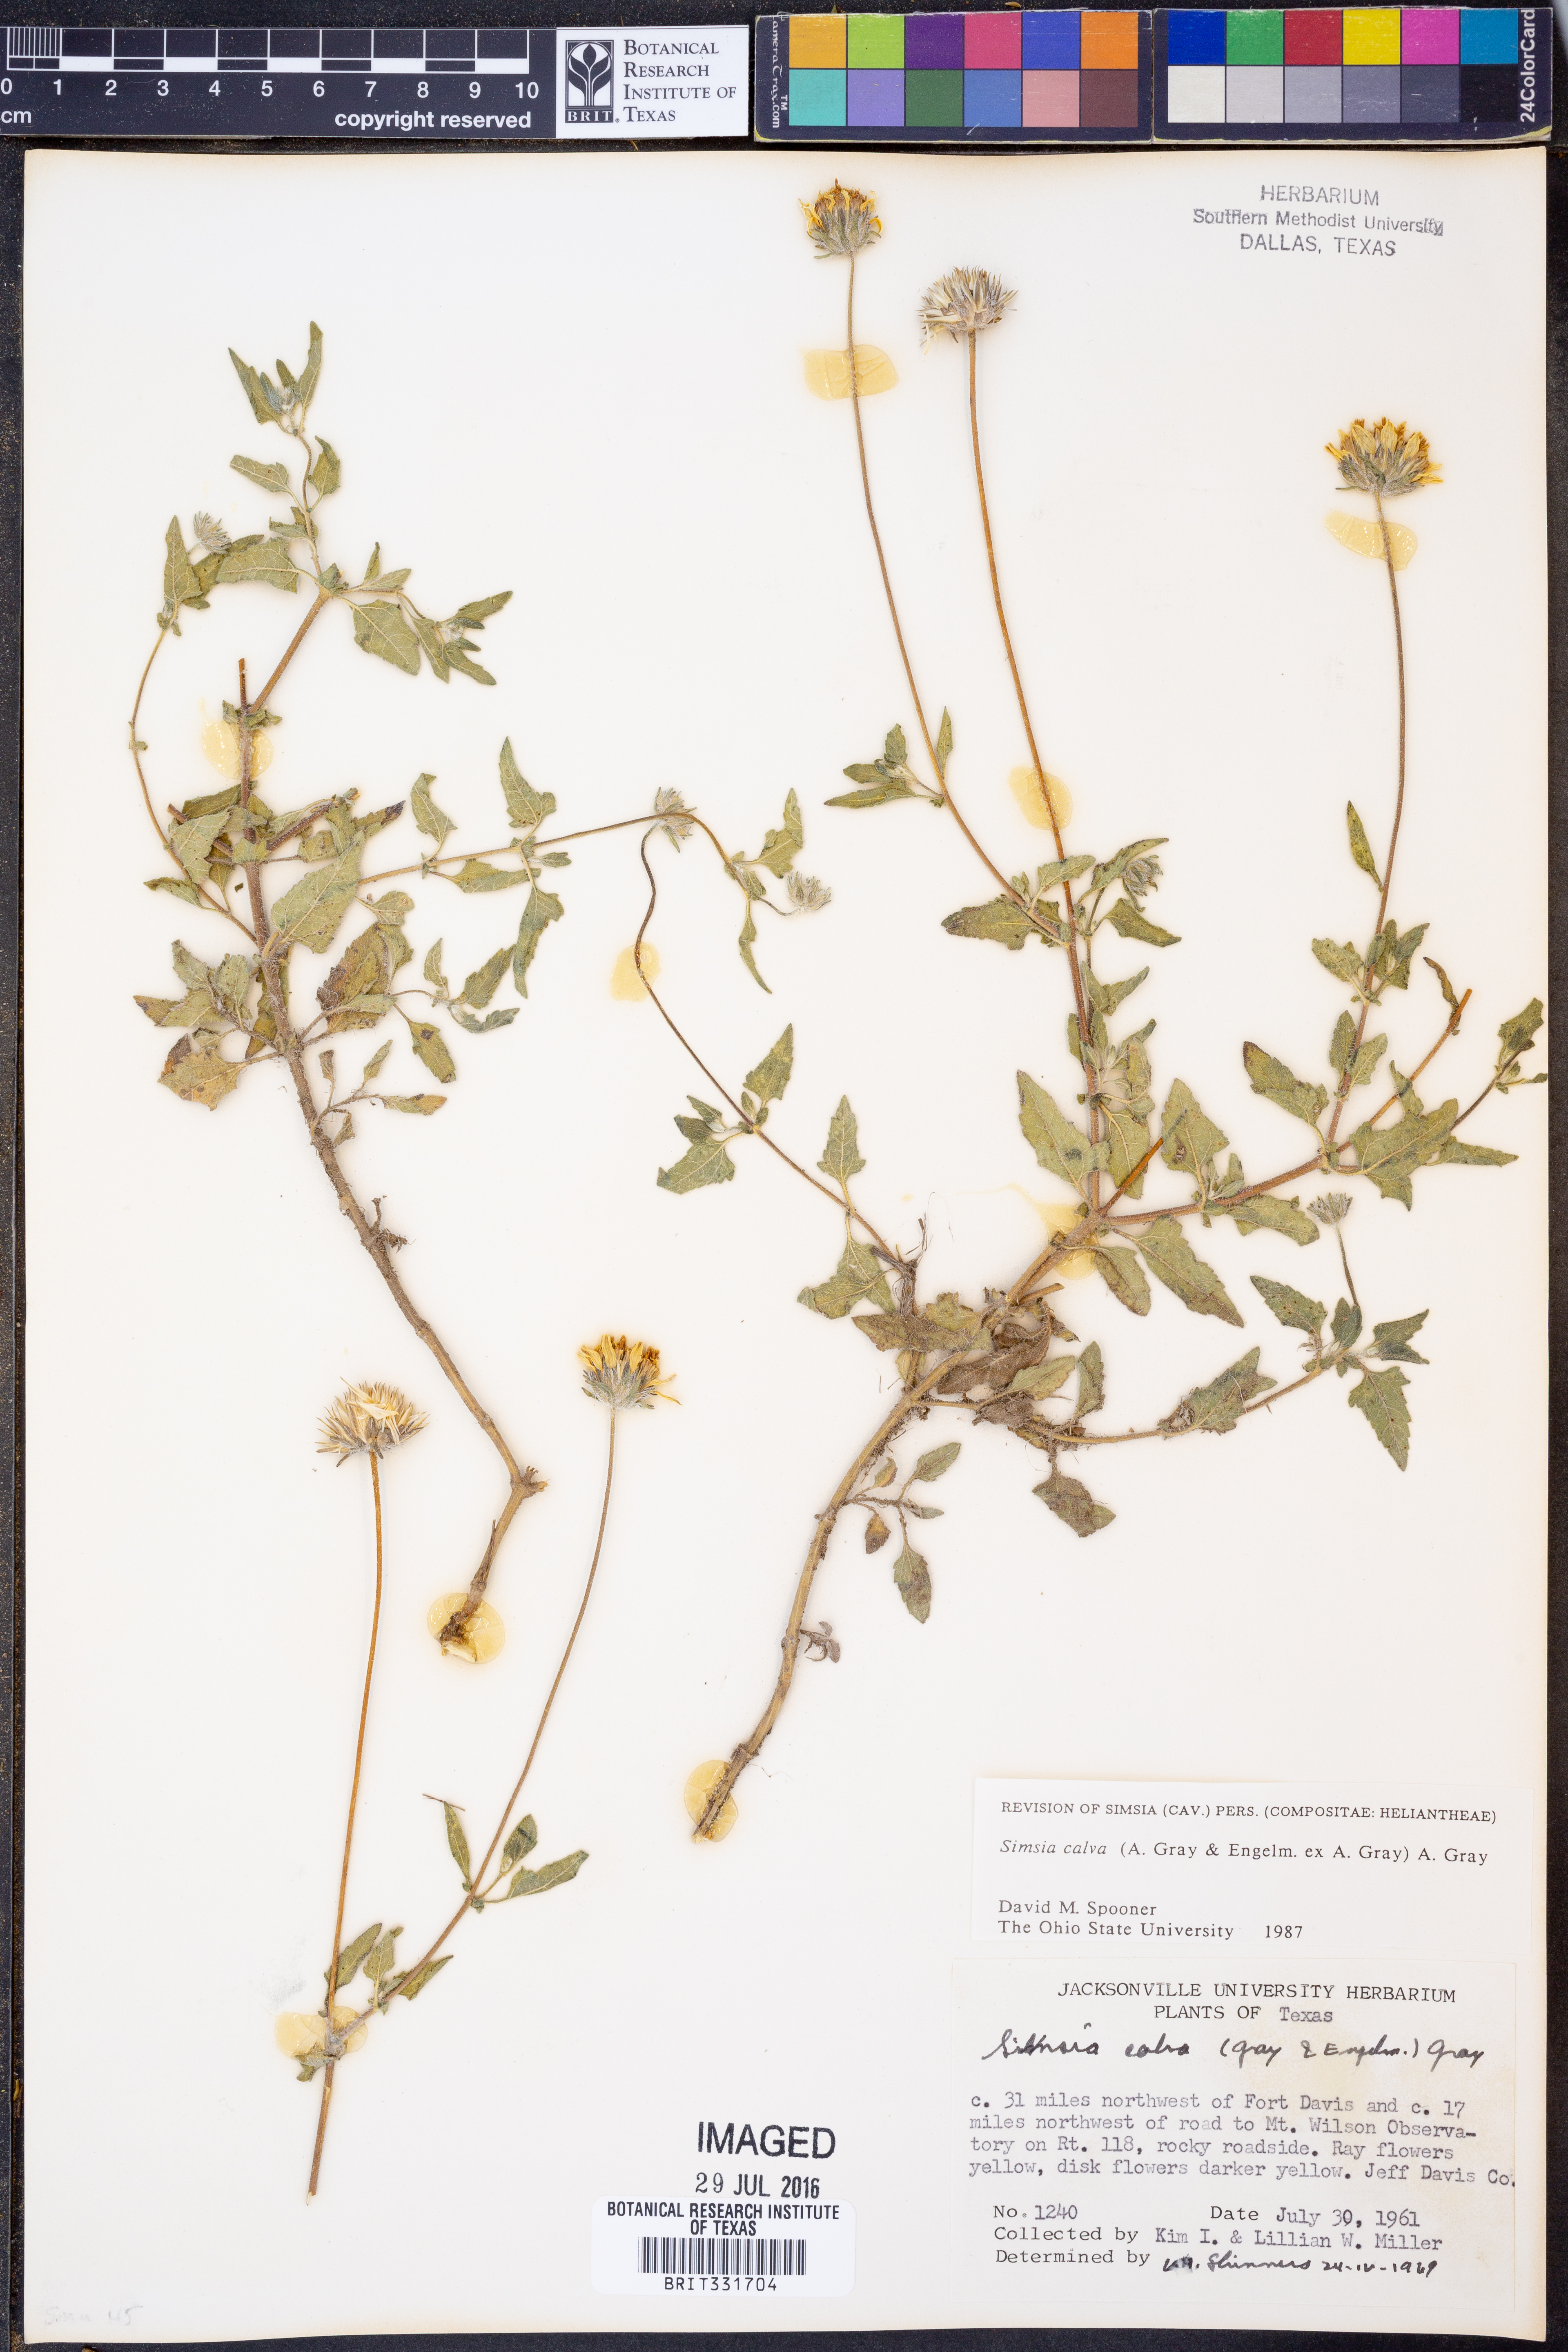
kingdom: Plantae
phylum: Tracheophyta
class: Magnoliopsida
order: Asterales
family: Asteraceae
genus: Simsia
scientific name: Simsia calva
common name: Awnless bush-sunflower
